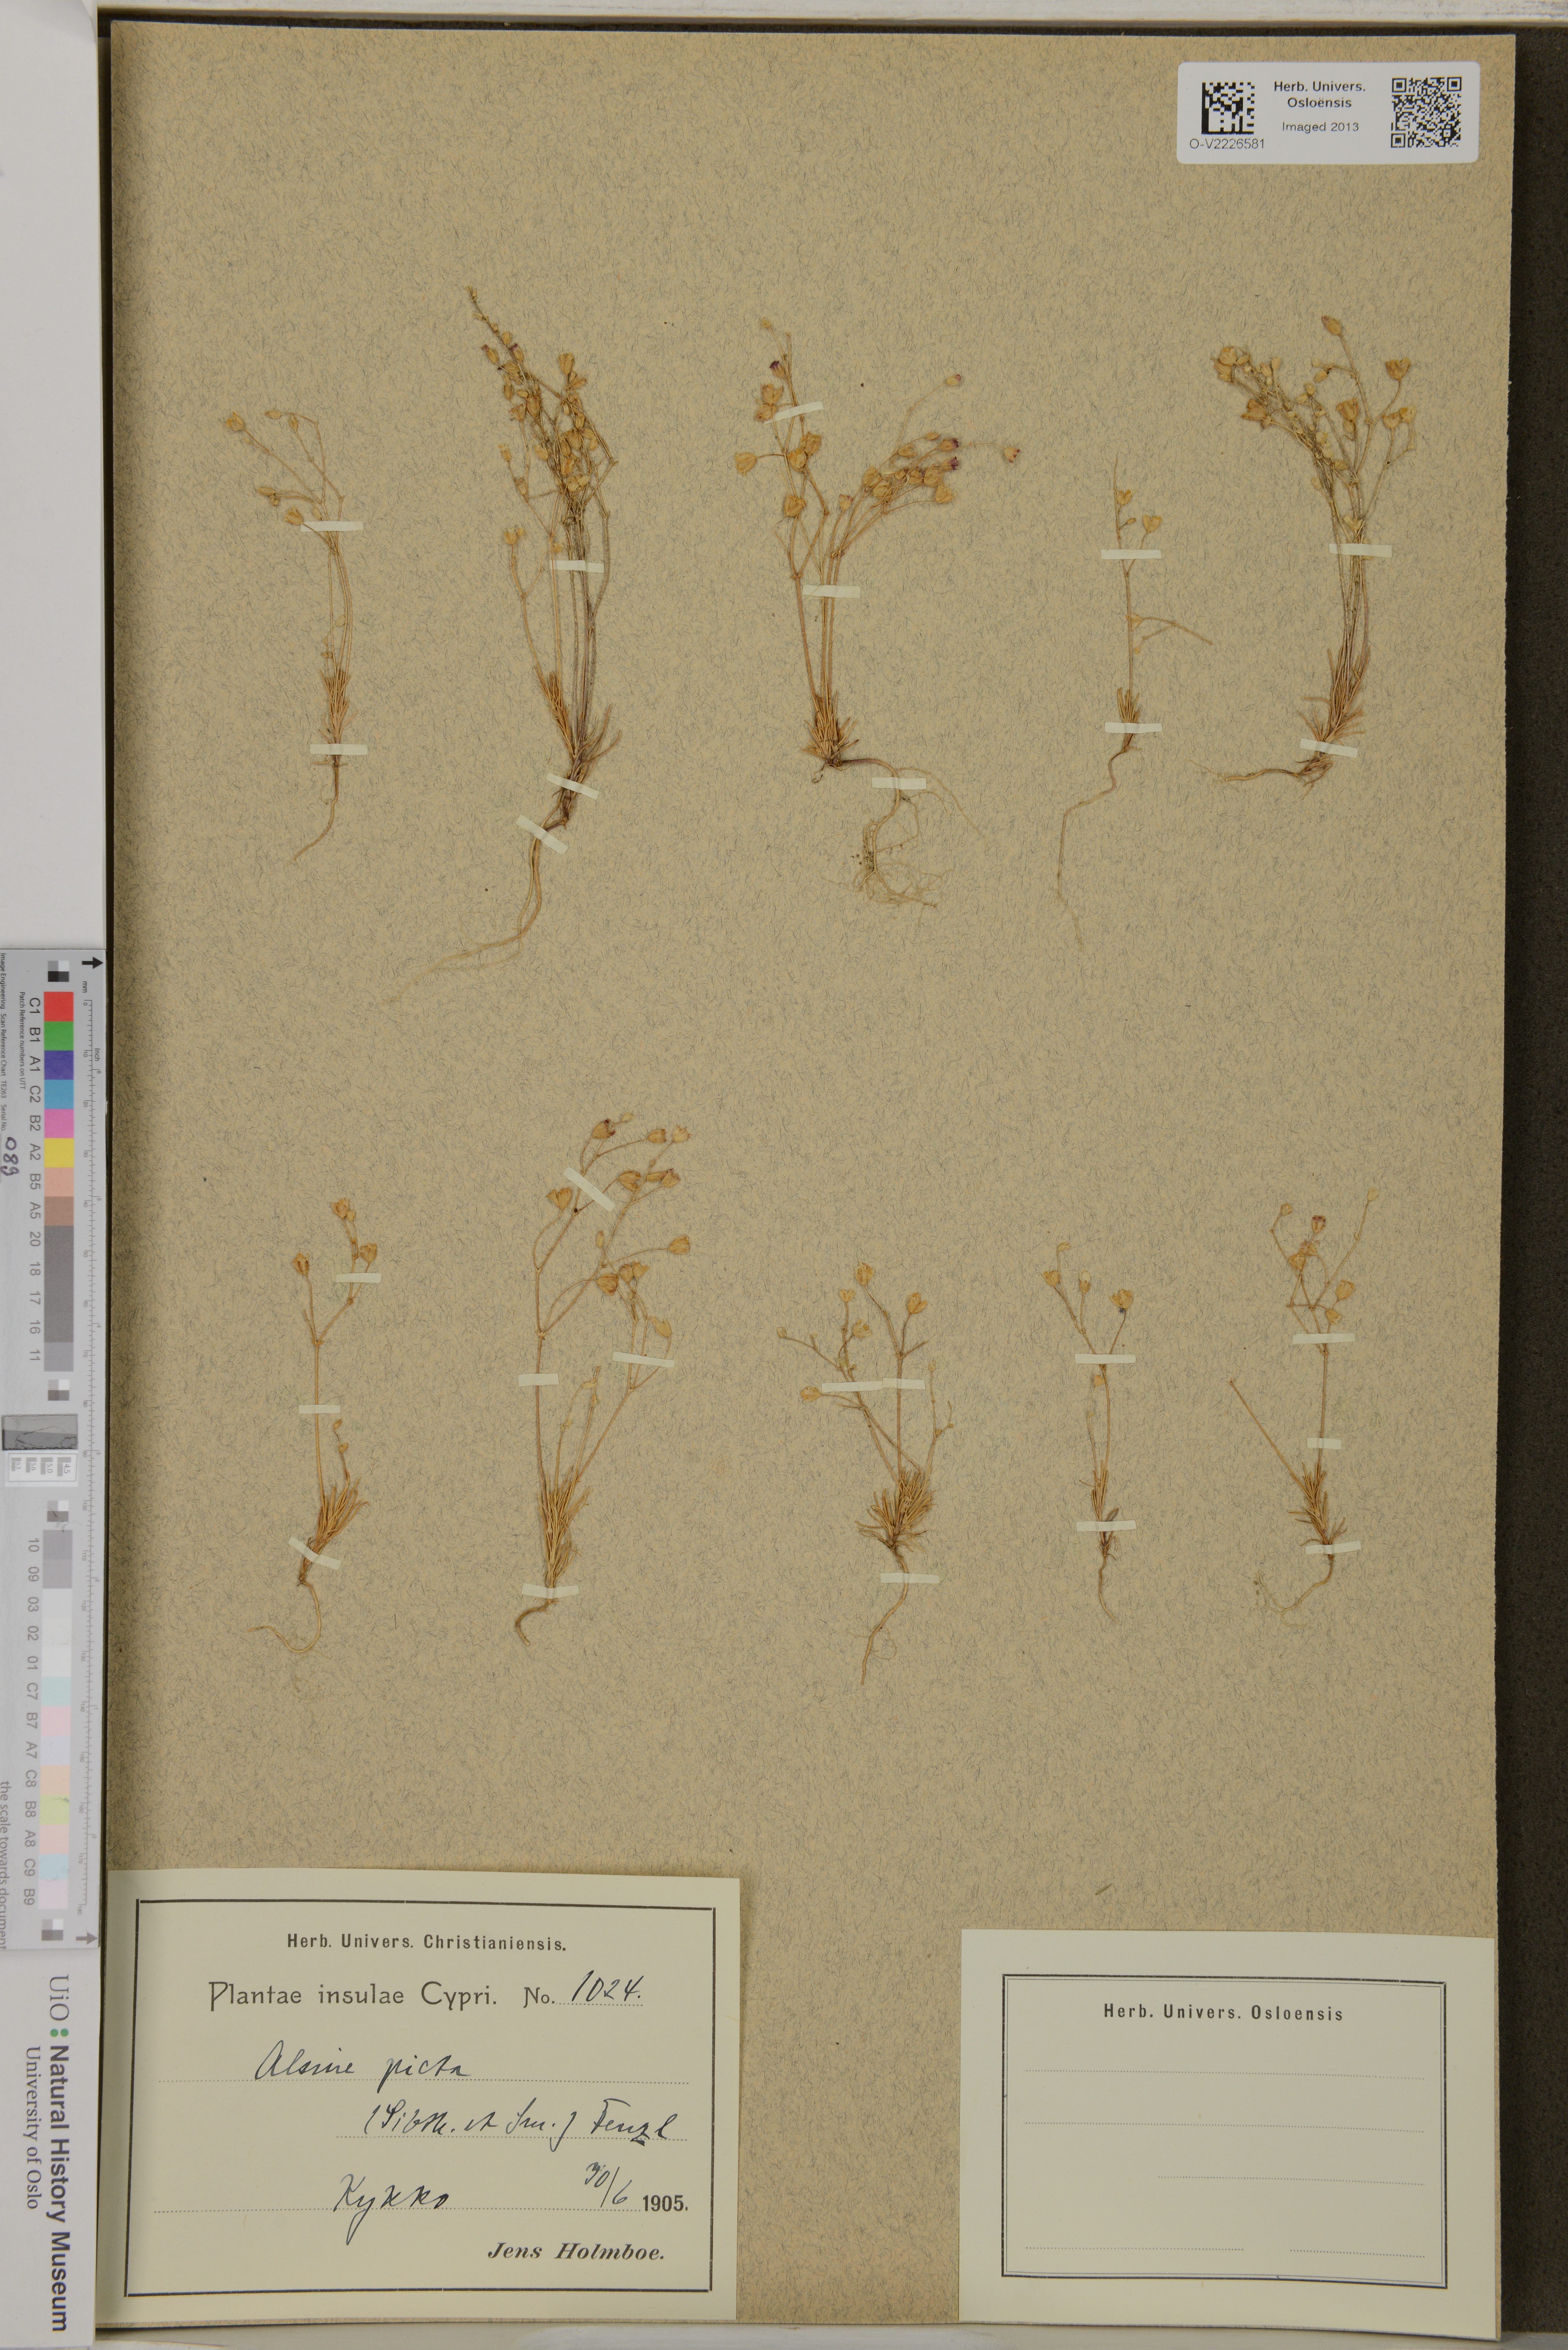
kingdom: Plantae
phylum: Tracheophyta
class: Magnoliopsida
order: Caryophyllales
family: Caryophyllaceae
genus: Eremogone
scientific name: Eremogone picta
